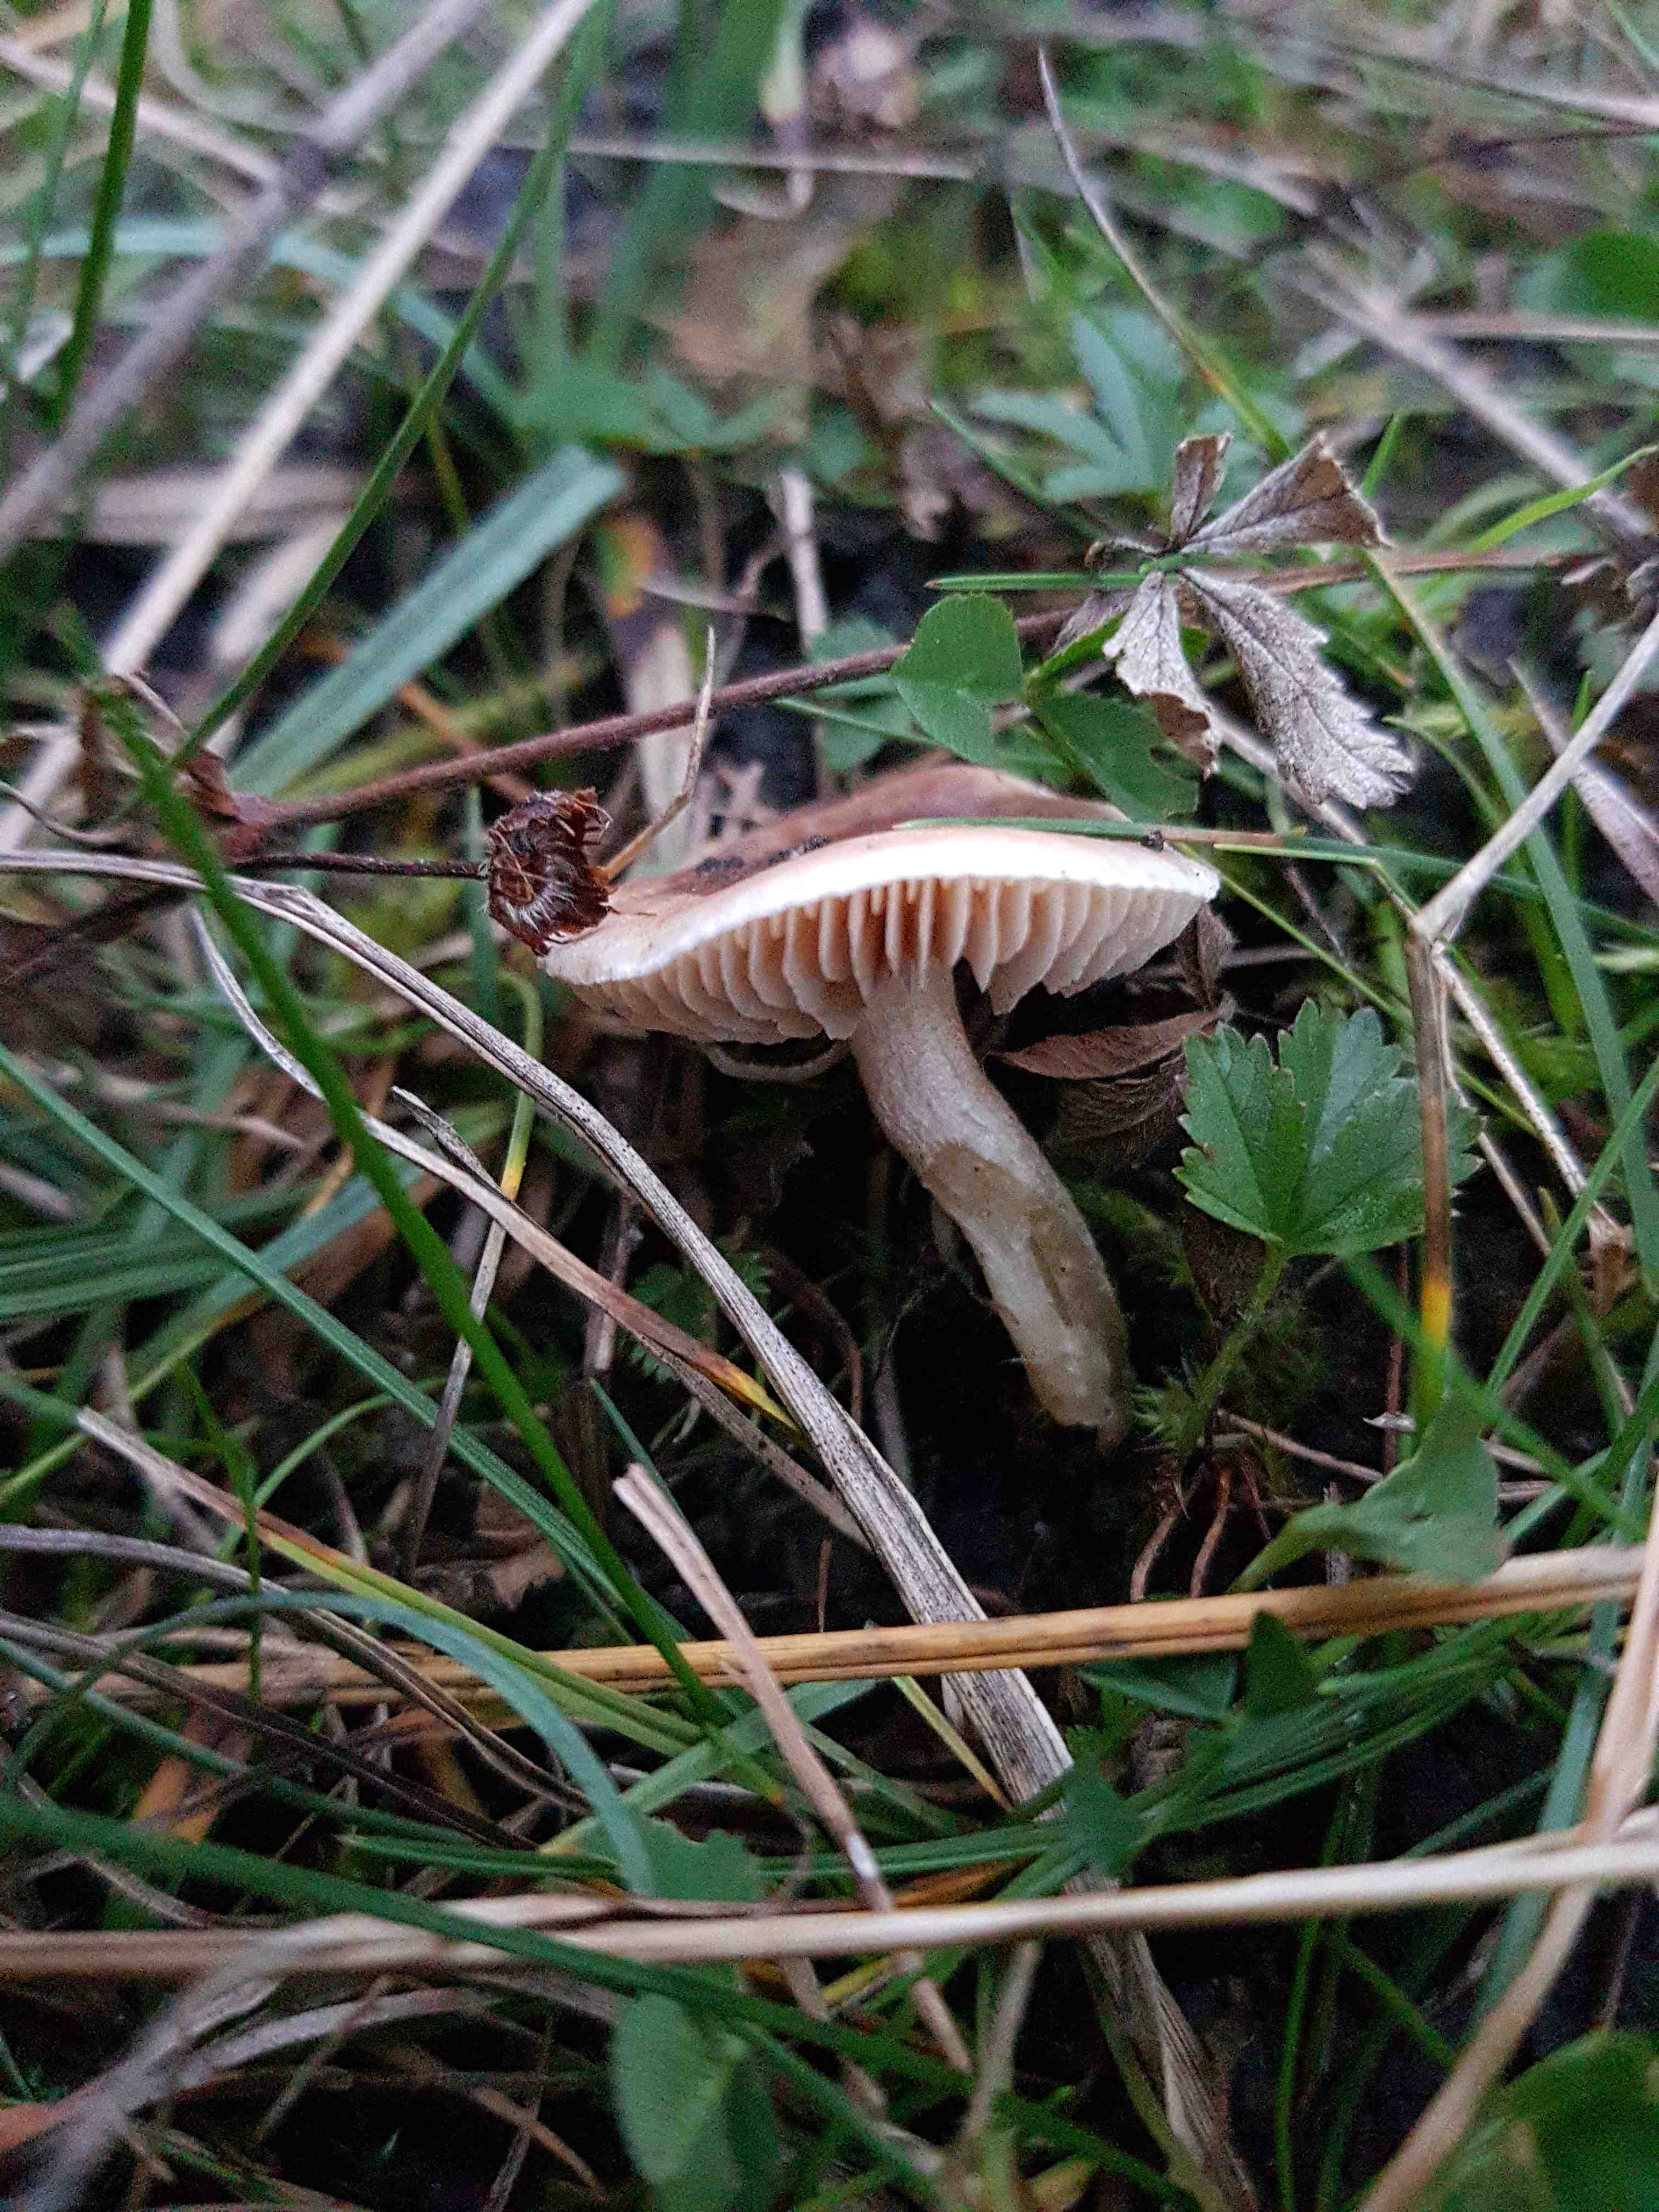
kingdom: Fungi
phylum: Basidiomycota
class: Agaricomycetes
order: Agaricales
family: Hymenogastraceae
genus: Hebeloma
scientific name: Hebeloma mesophaeum
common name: lerbrun tåreblad
